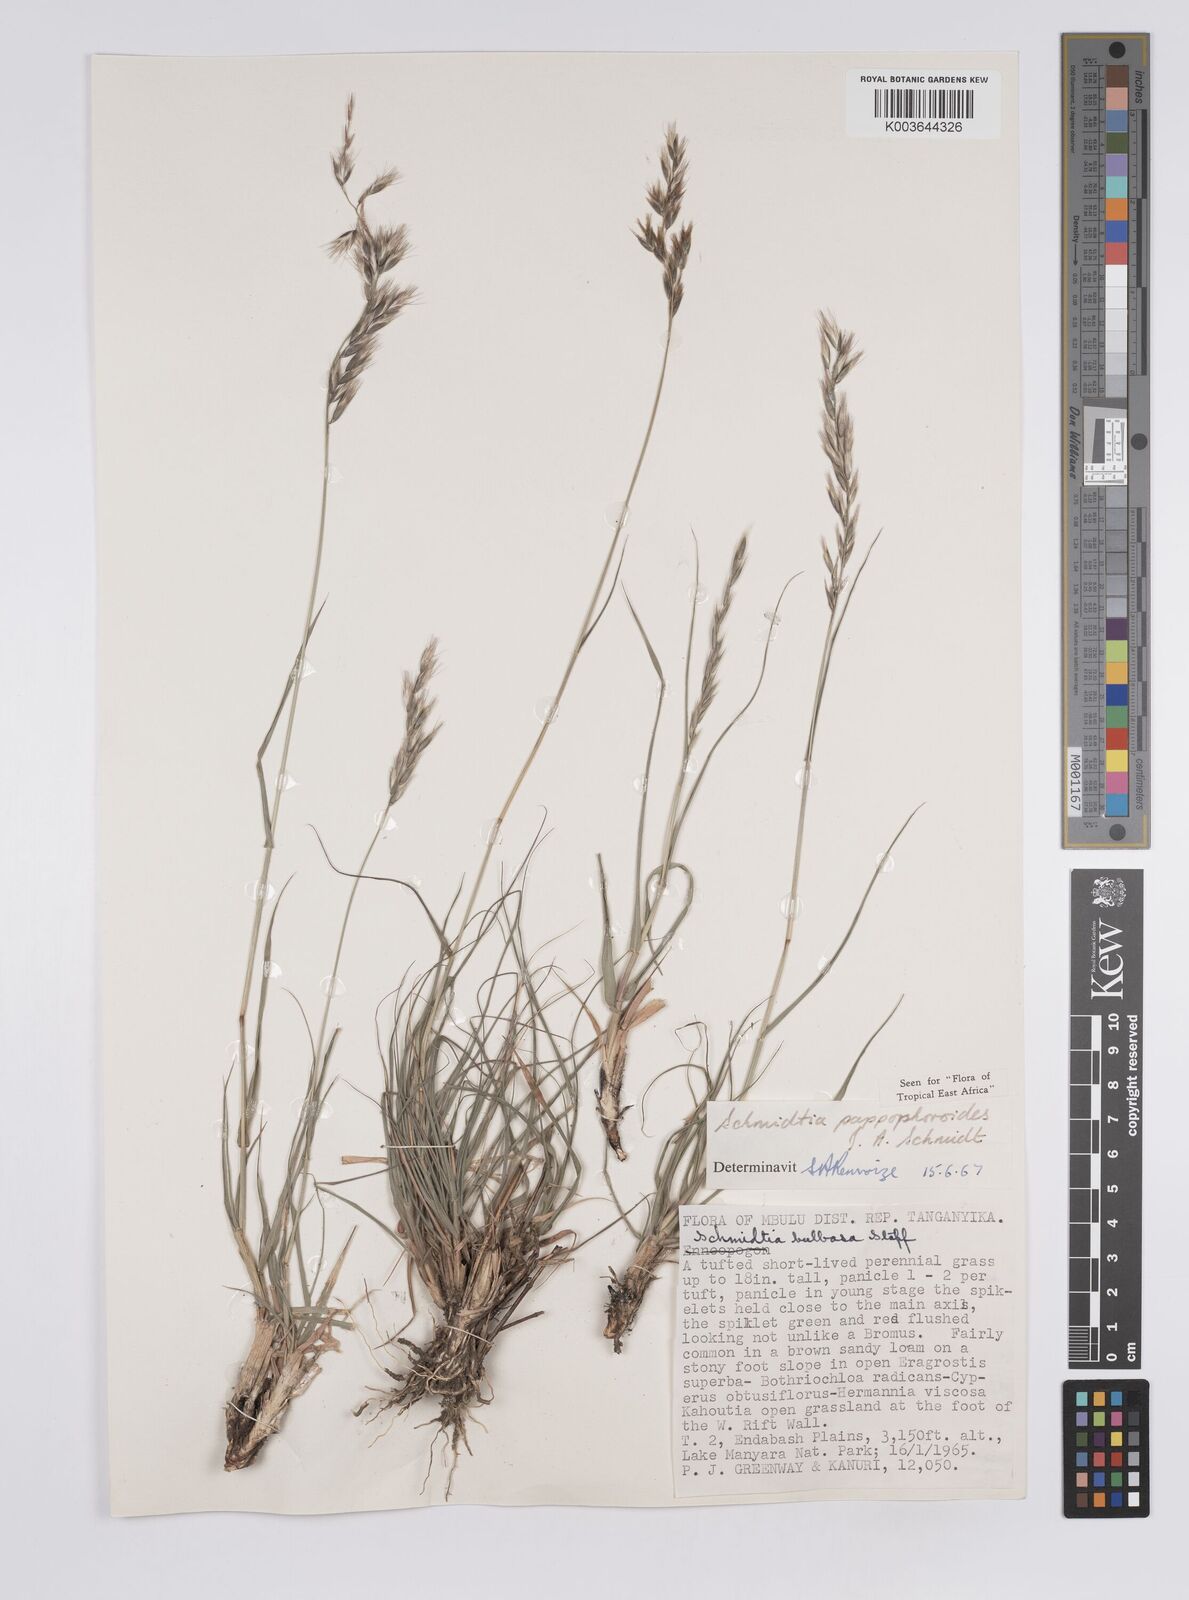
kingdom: Plantae
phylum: Tracheophyta
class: Liliopsida
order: Poales
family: Poaceae
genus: Schmidtia
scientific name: Schmidtia pappophoroides
